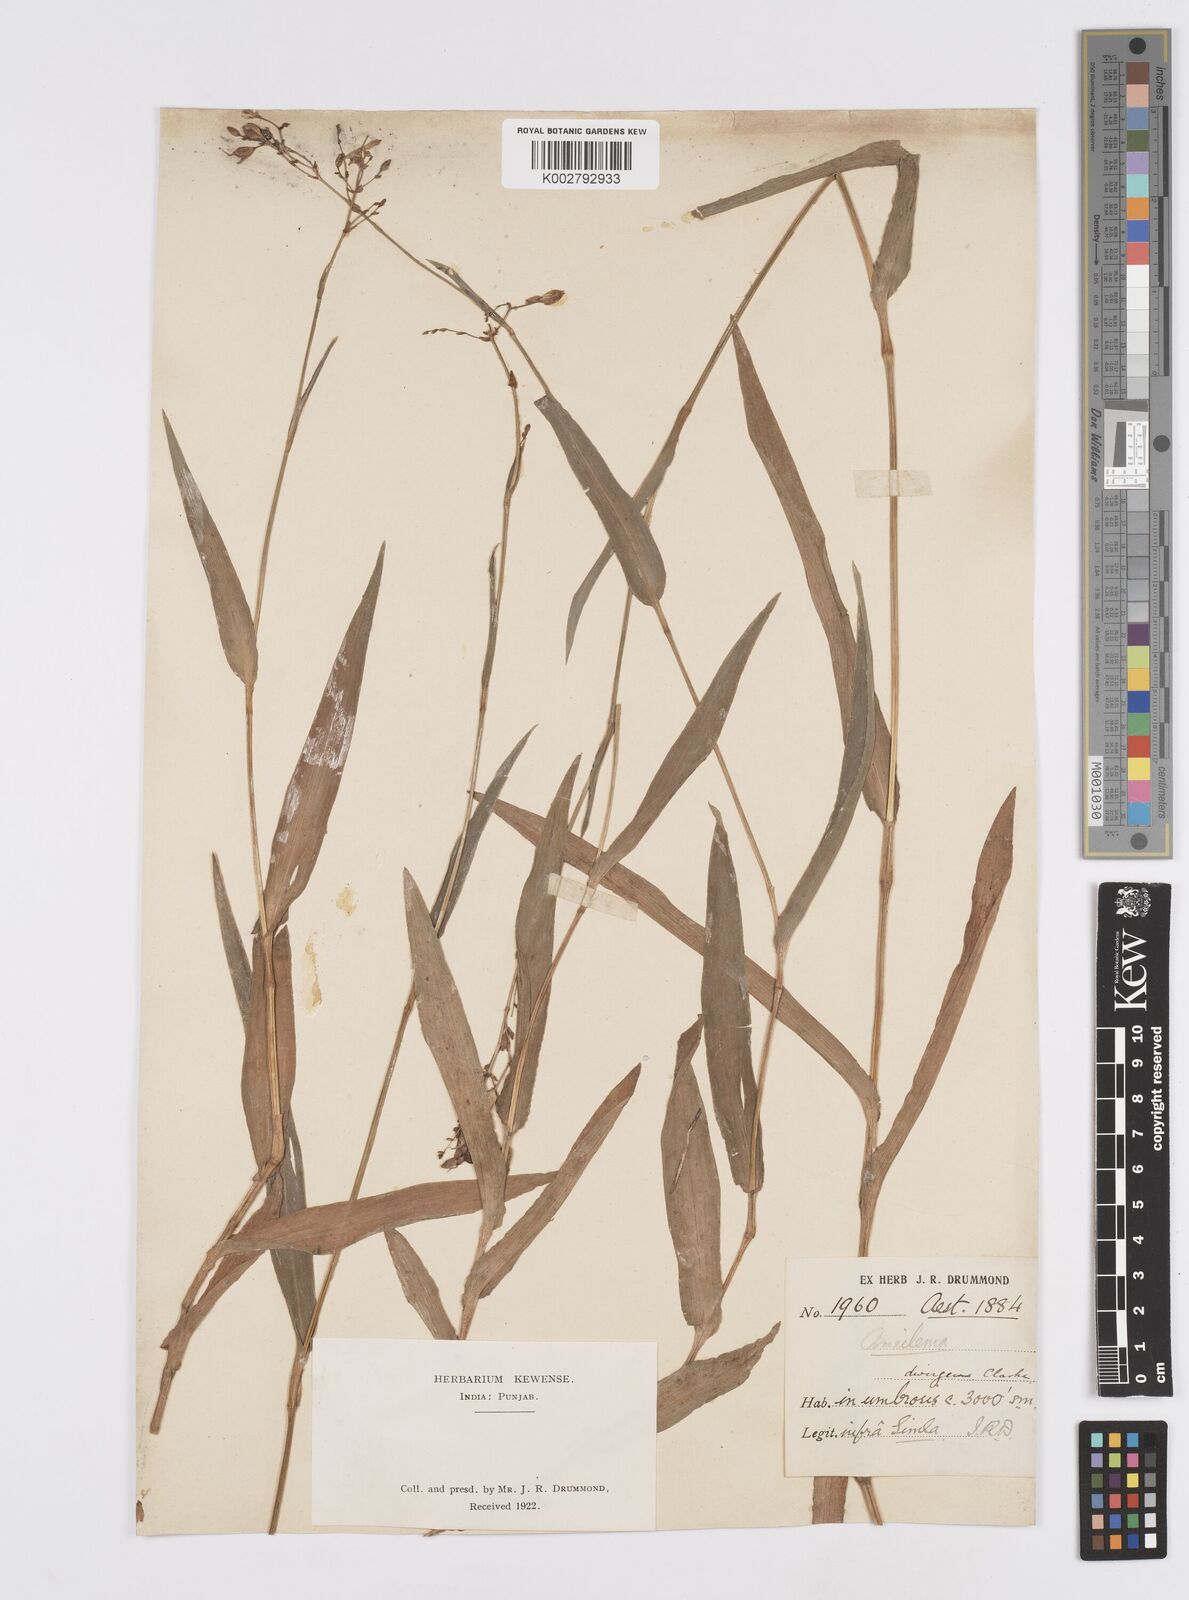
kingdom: Plantae
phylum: Tracheophyta
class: Liliopsida
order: Commelinales
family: Commelinaceae
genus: Murdannia
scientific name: Murdannia divergens
